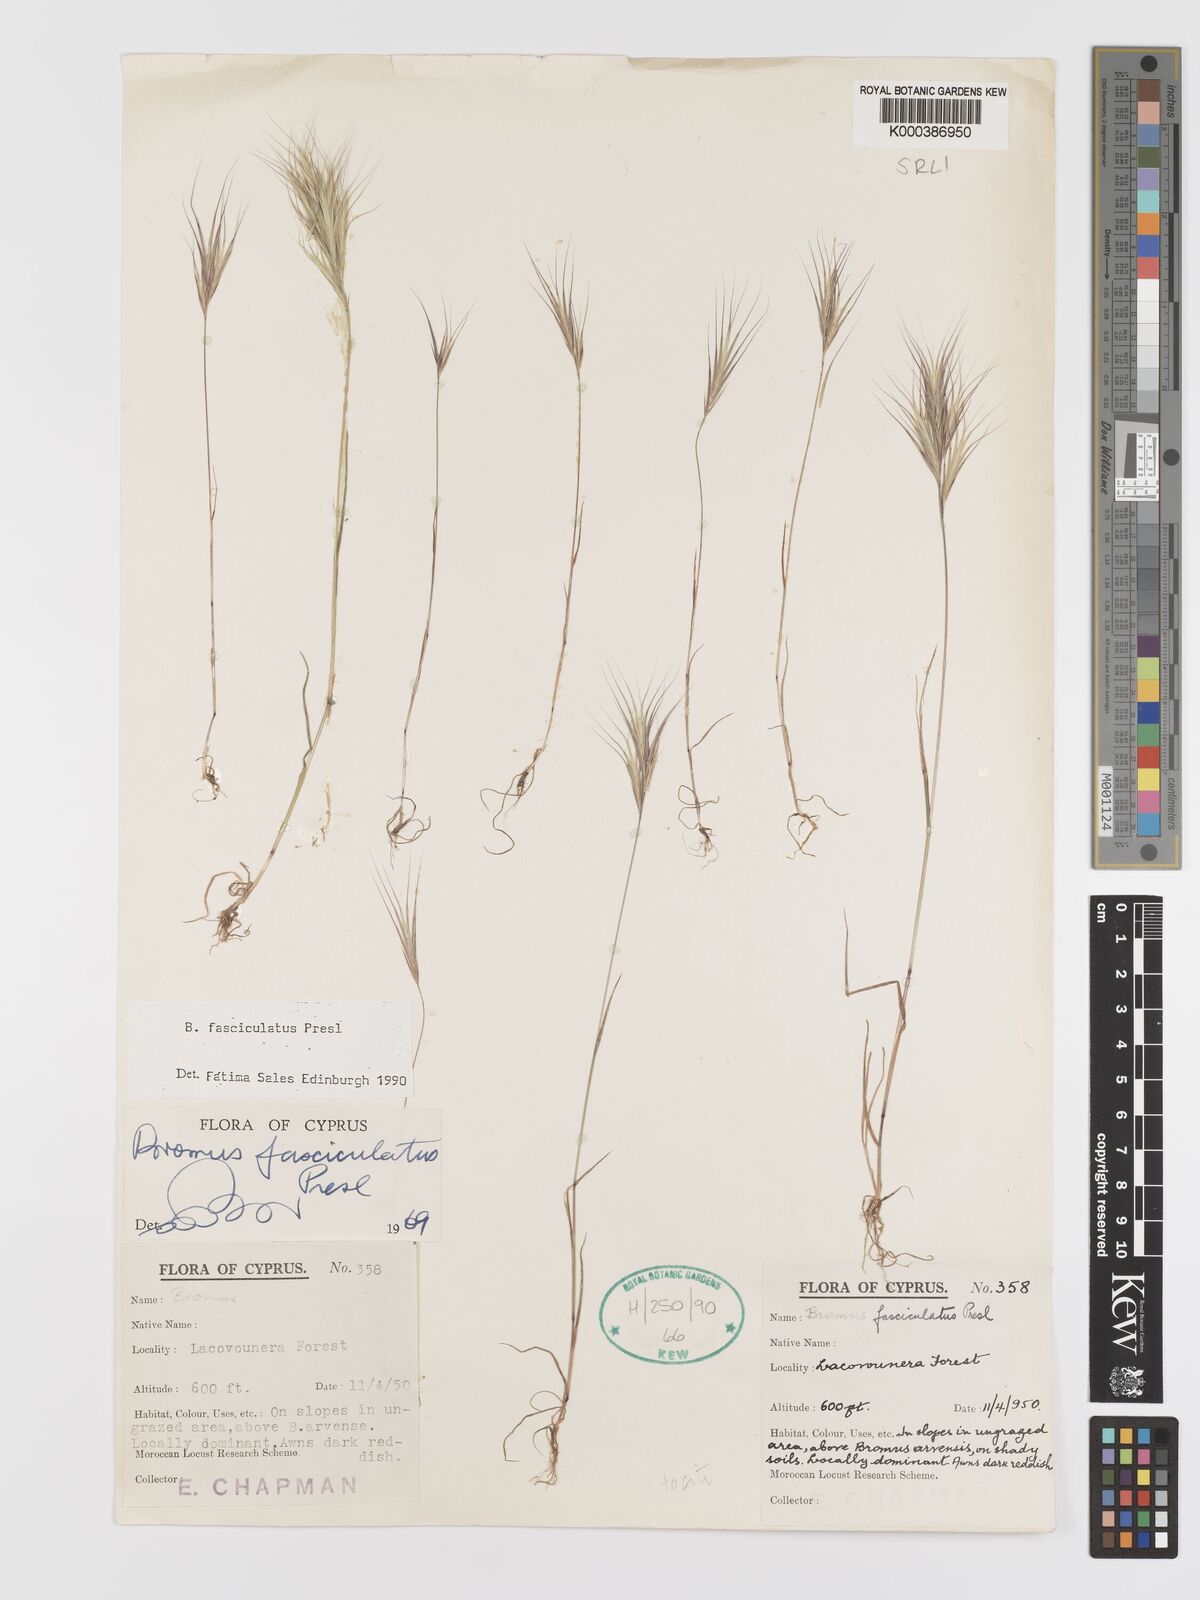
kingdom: Plantae
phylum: Tracheophyta
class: Liliopsida
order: Poales
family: Poaceae
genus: Bromus
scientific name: Bromus fasciculatus
